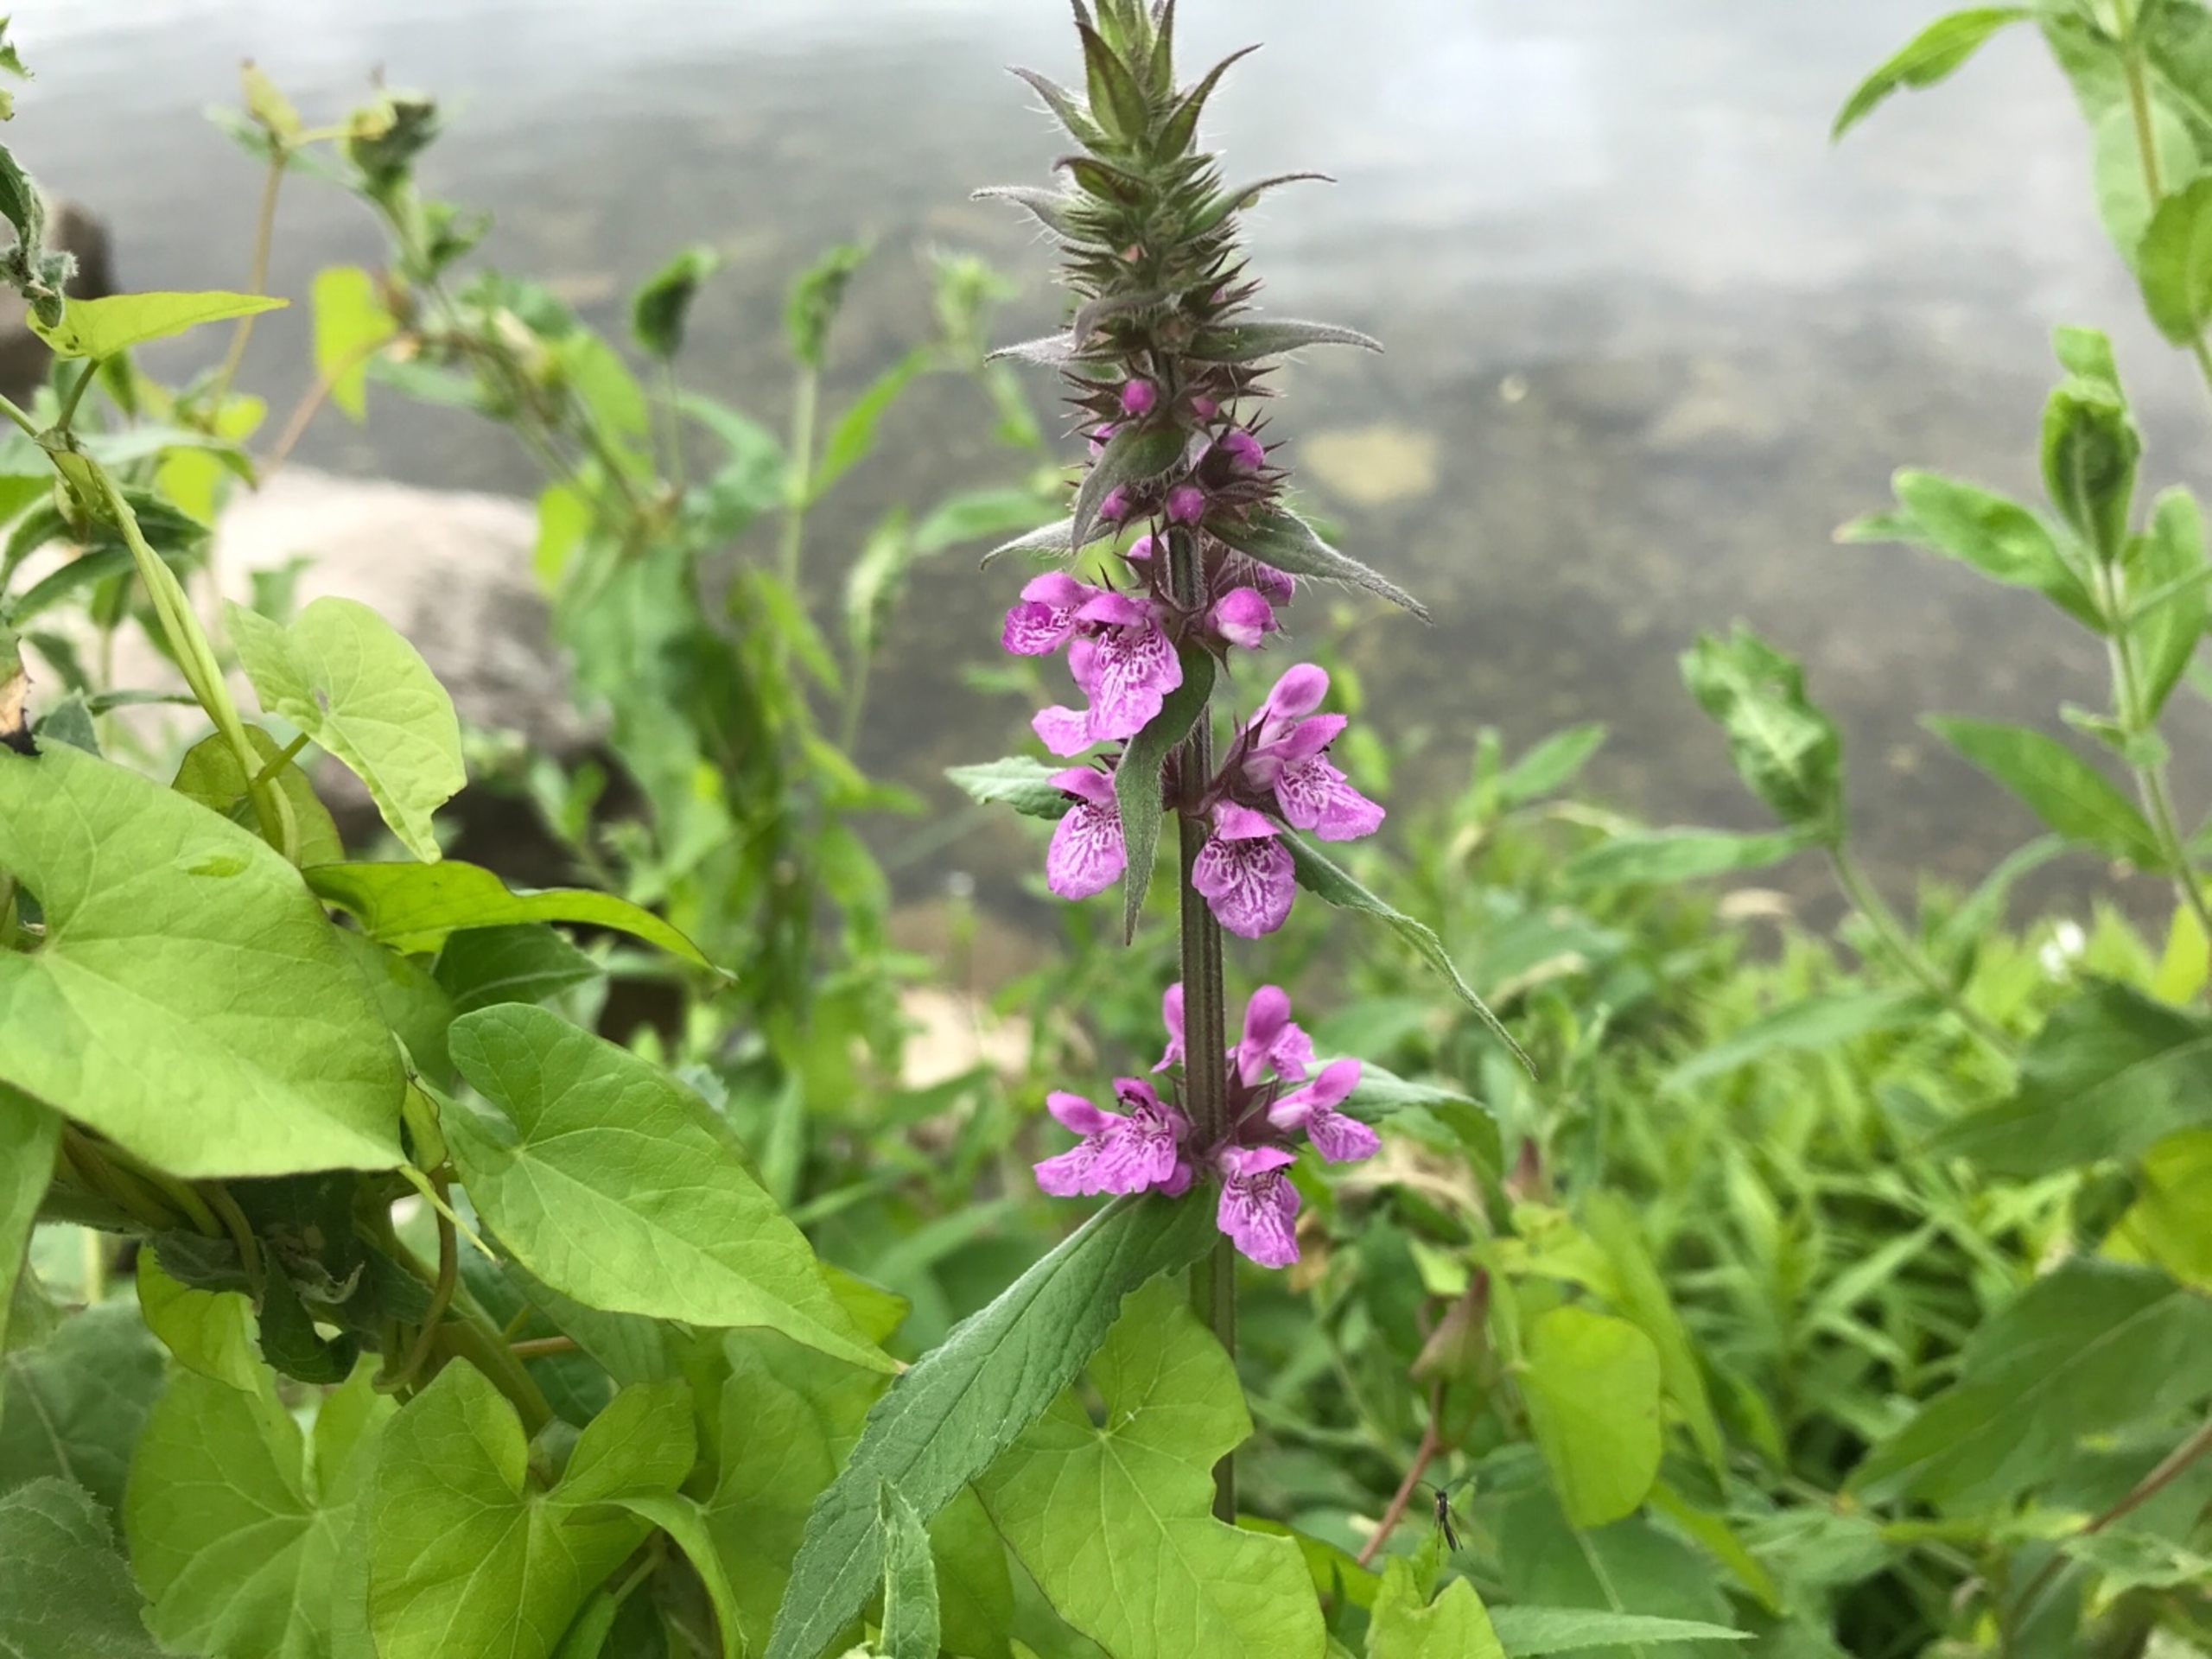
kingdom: Plantae
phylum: Tracheophyta
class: Magnoliopsida
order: Lamiales
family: Lamiaceae
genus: Stachys
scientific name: Stachys palustris
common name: Kær-galtetand
